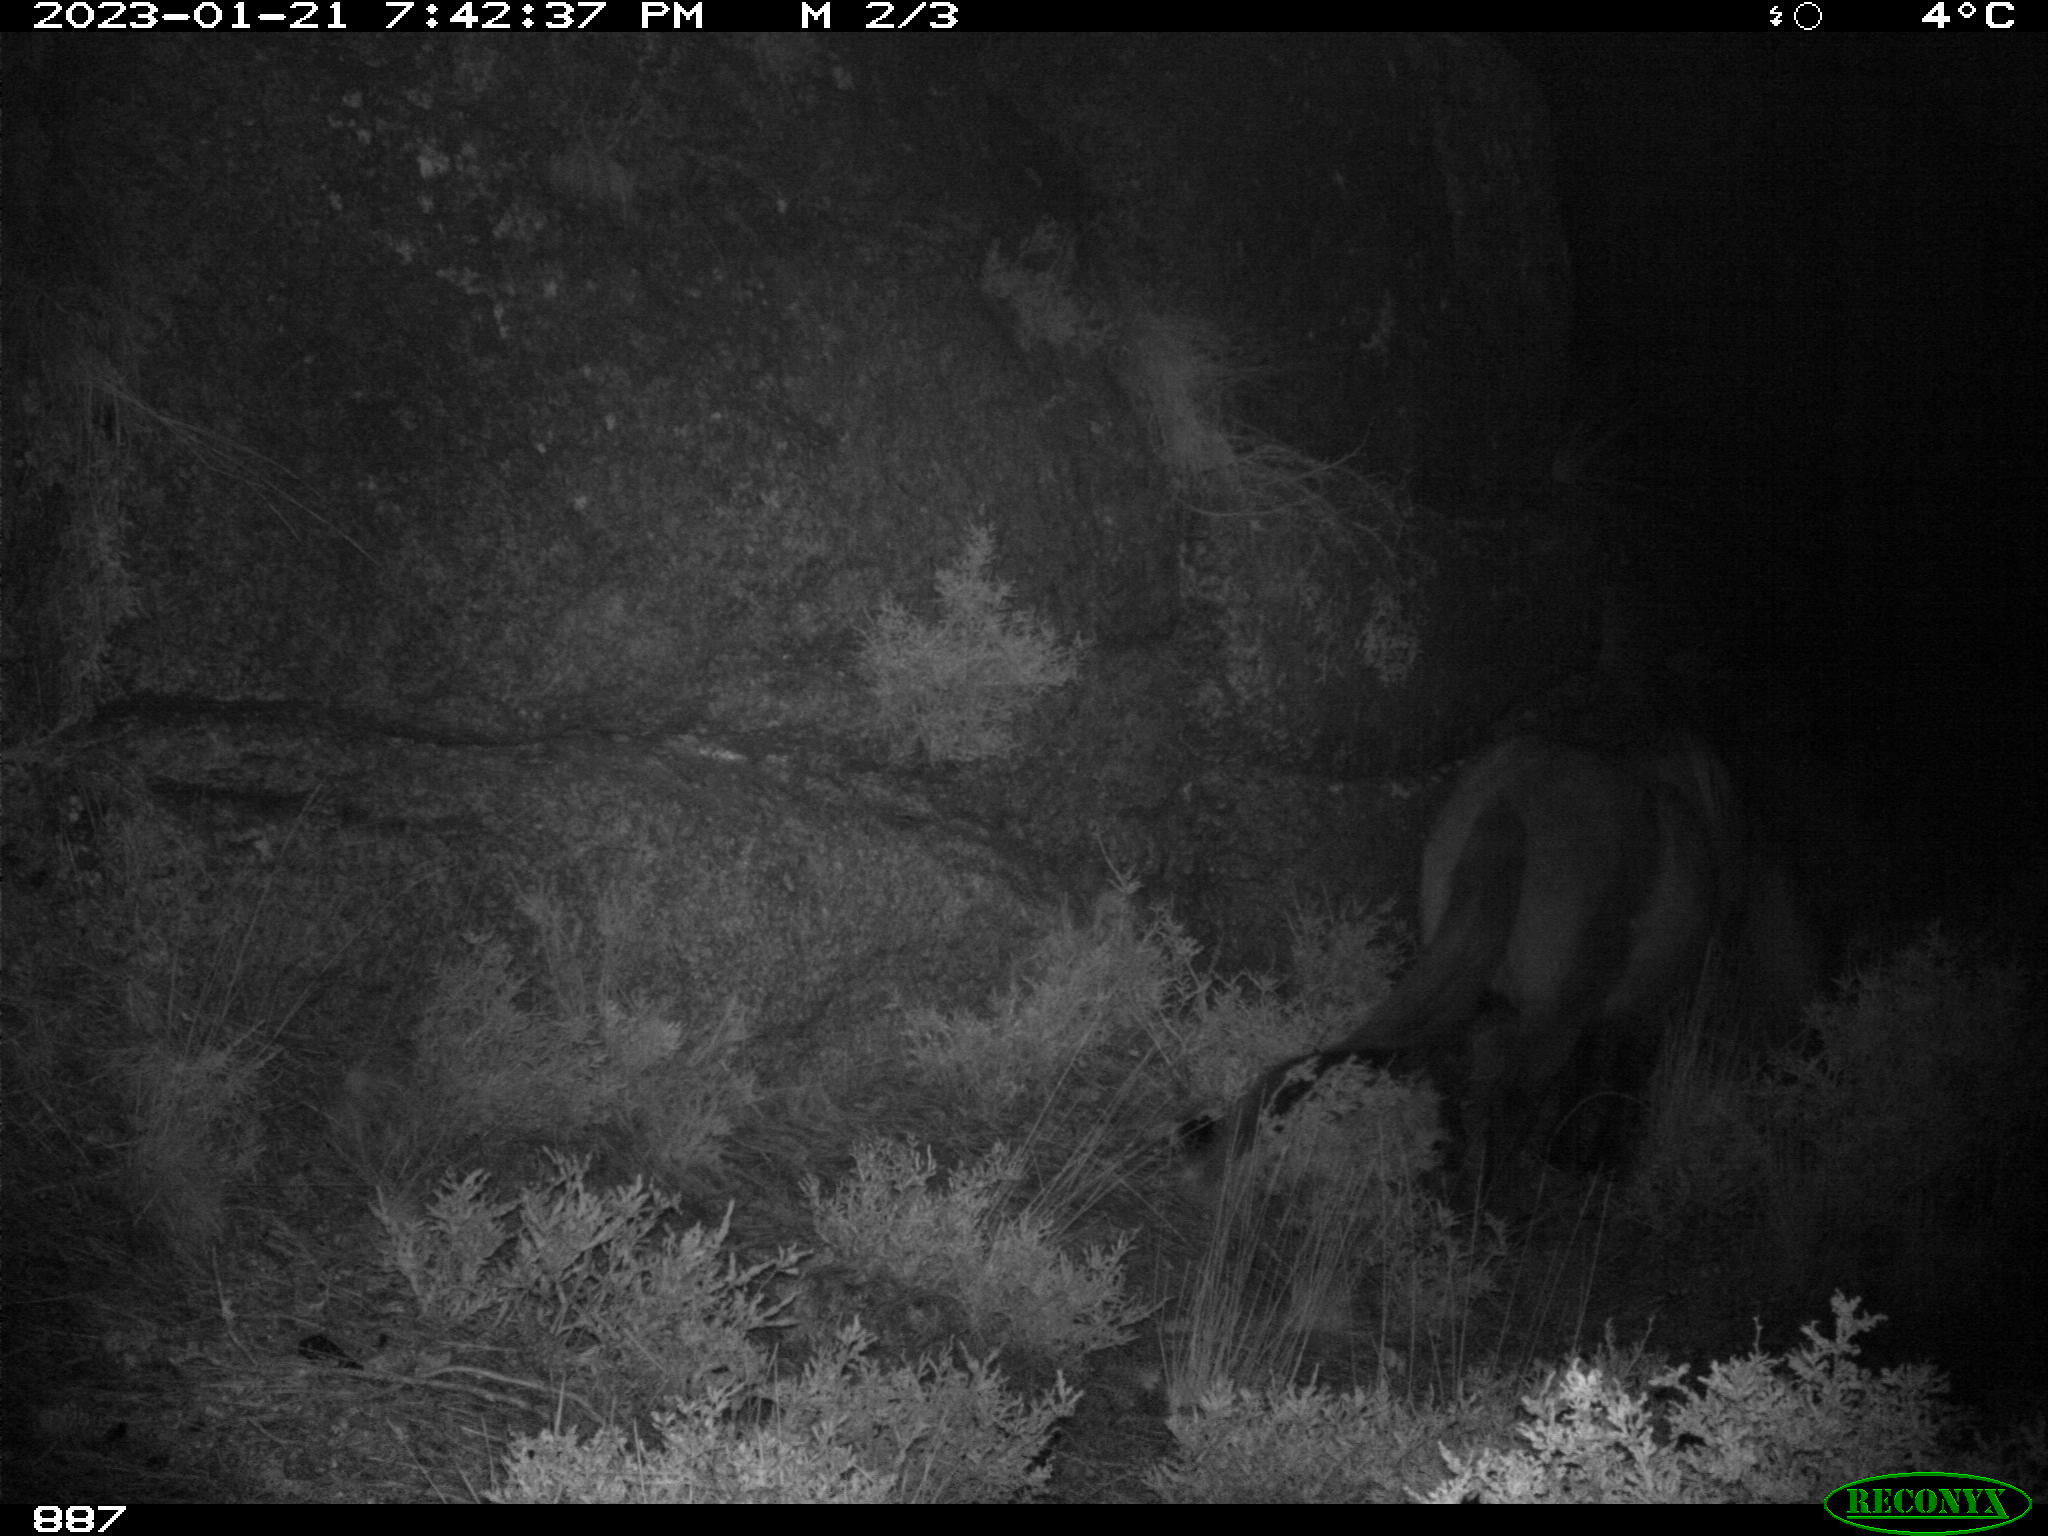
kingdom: Animalia
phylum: Chordata
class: Mammalia
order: Perissodactyla
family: Equidae
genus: Equus
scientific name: Equus caballus
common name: Horse
